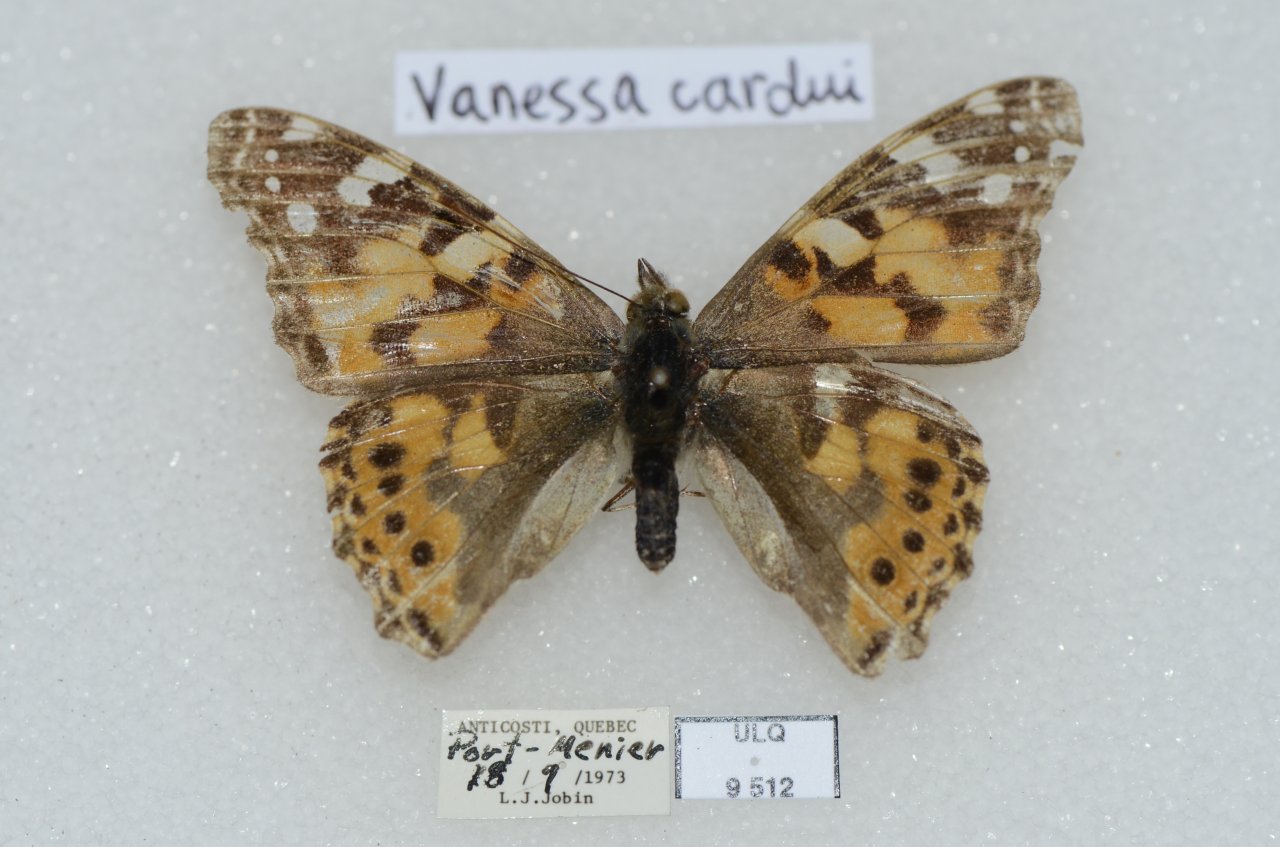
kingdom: Animalia
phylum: Arthropoda
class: Insecta
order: Lepidoptera
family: Nymphalidae
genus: Vanessa
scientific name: Vanessa cardui
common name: Painted Lady
